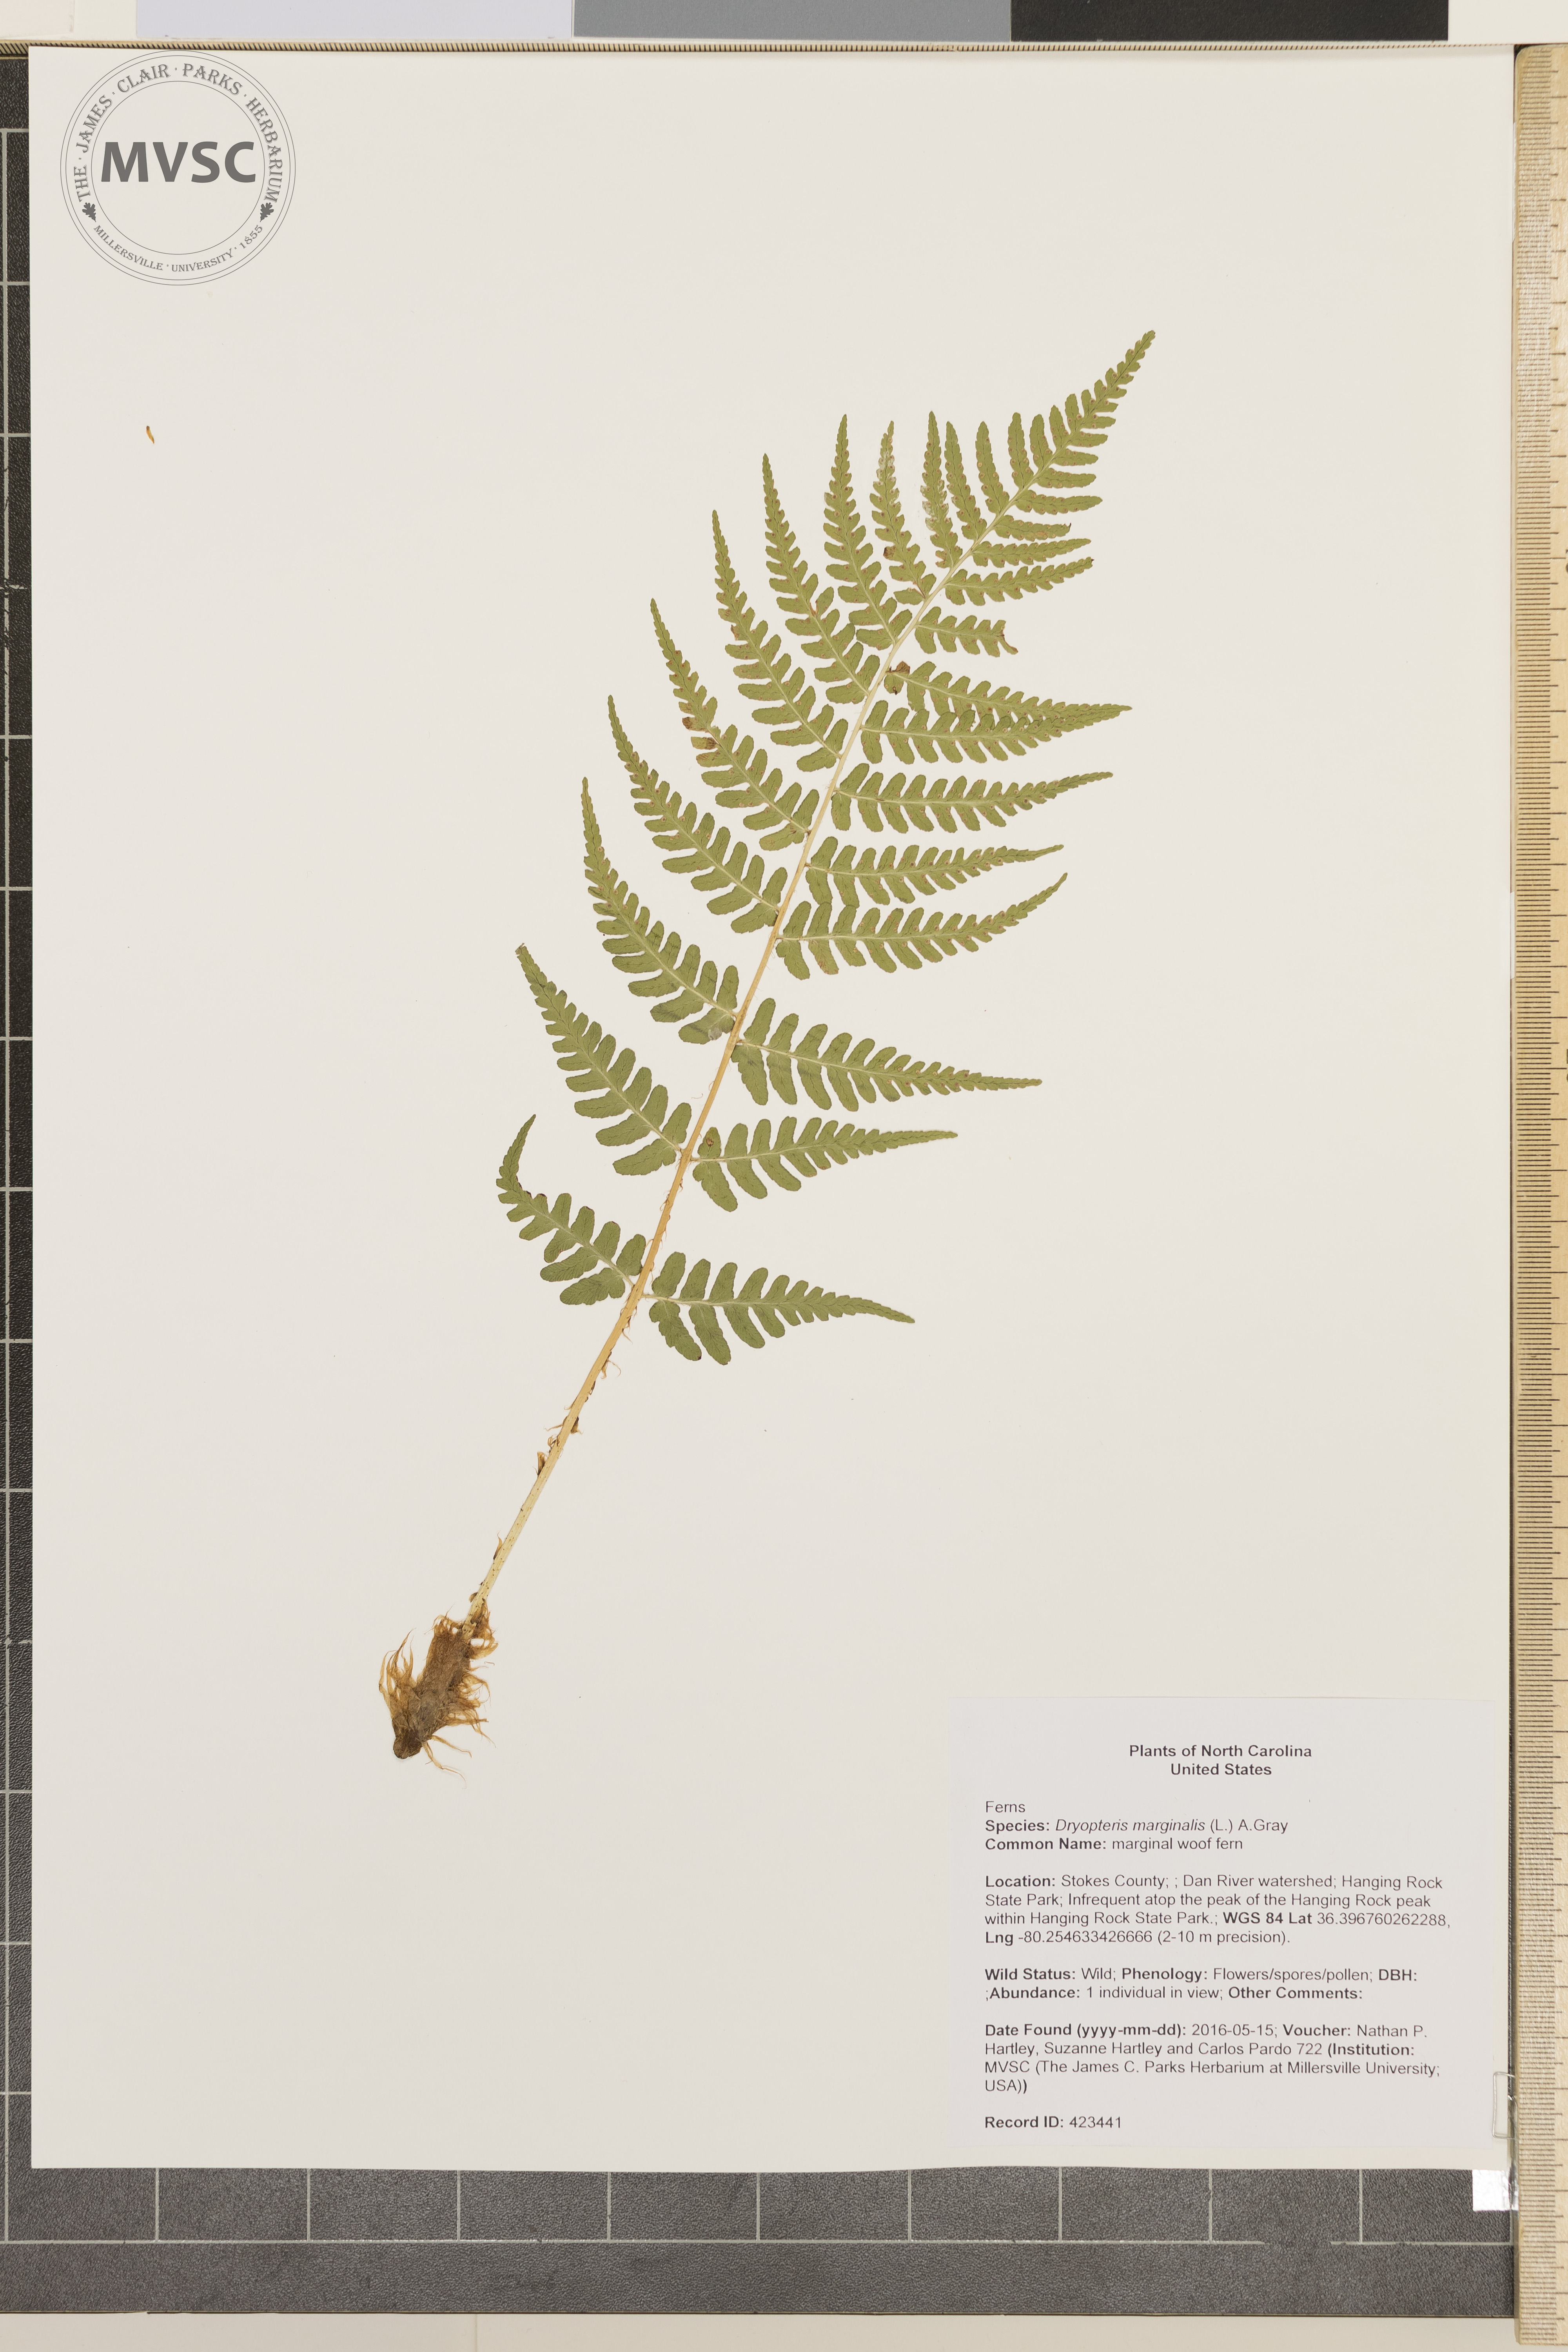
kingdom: Plantae
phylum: Tracheophyta
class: Polypodiopsida
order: Polypodiales
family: Dryopteridaceae
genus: Dryopteris
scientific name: Dryopteris marginalis
